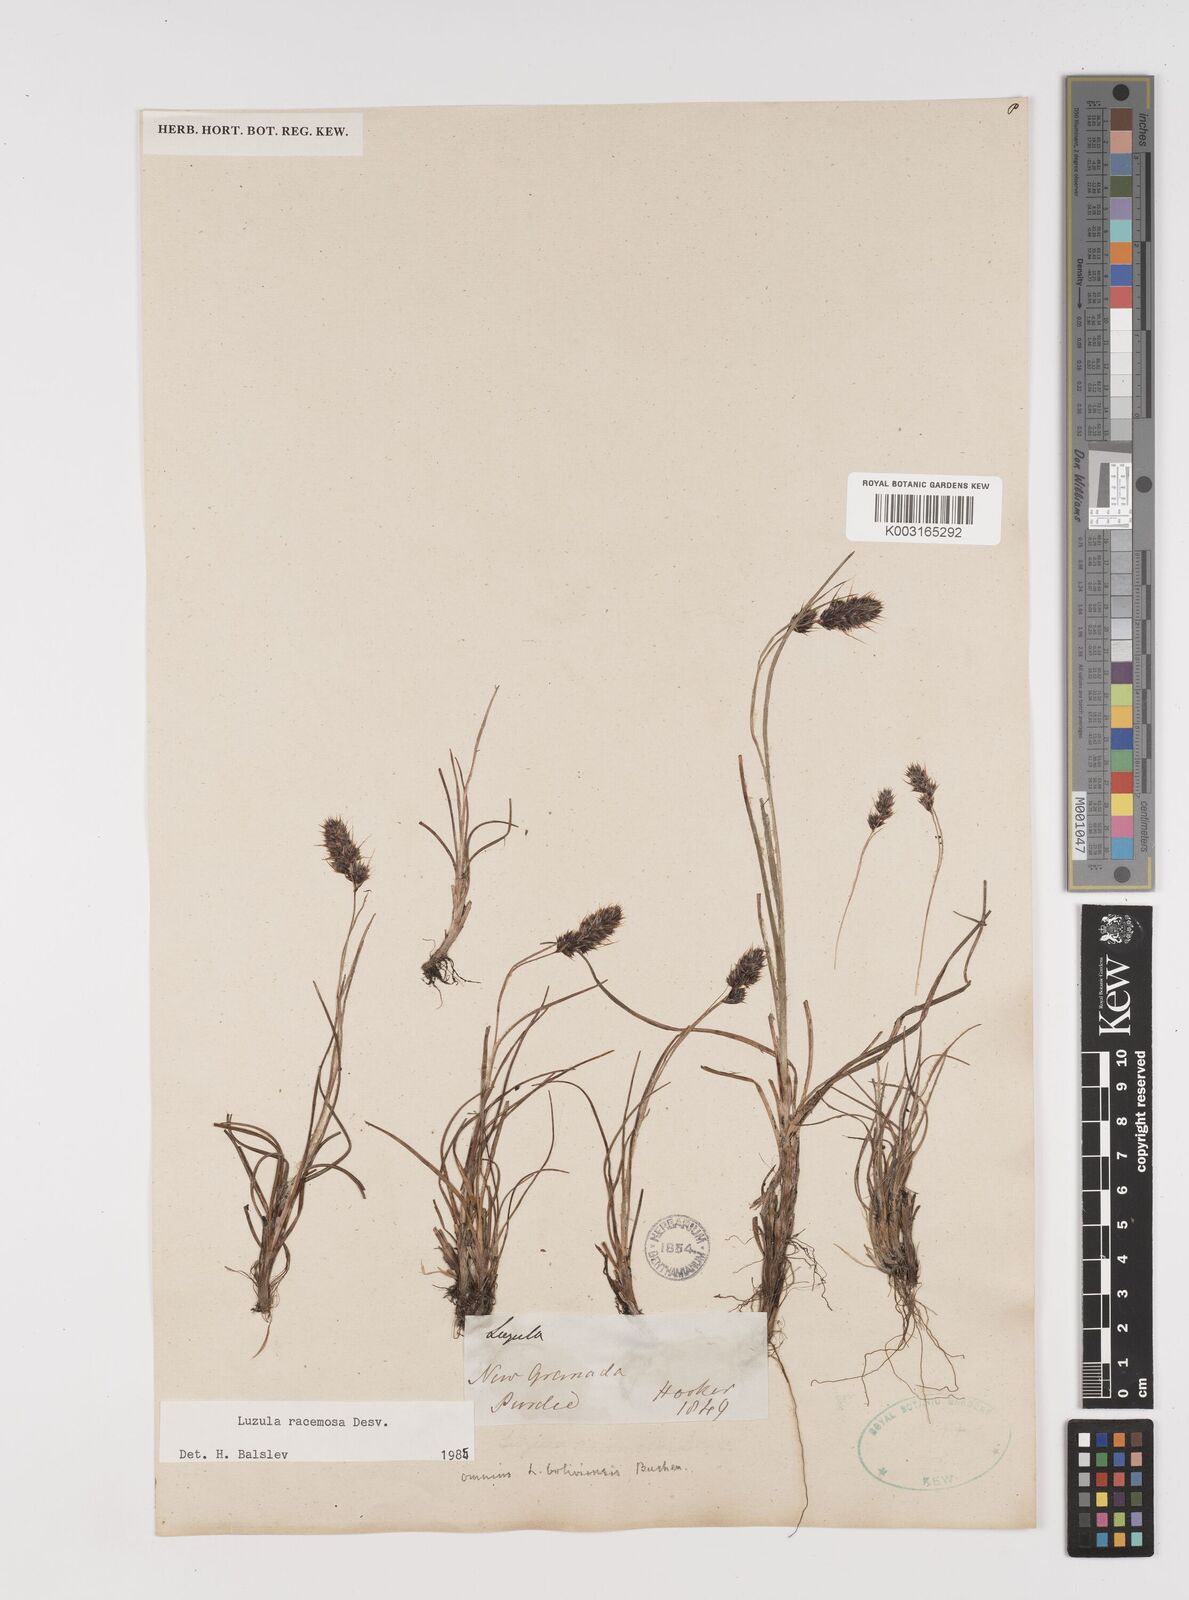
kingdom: Plantae
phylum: Tracheophyta
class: Liliopsida
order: Poales
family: Juncaceae
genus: Luzula
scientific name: Luzula racemosa
